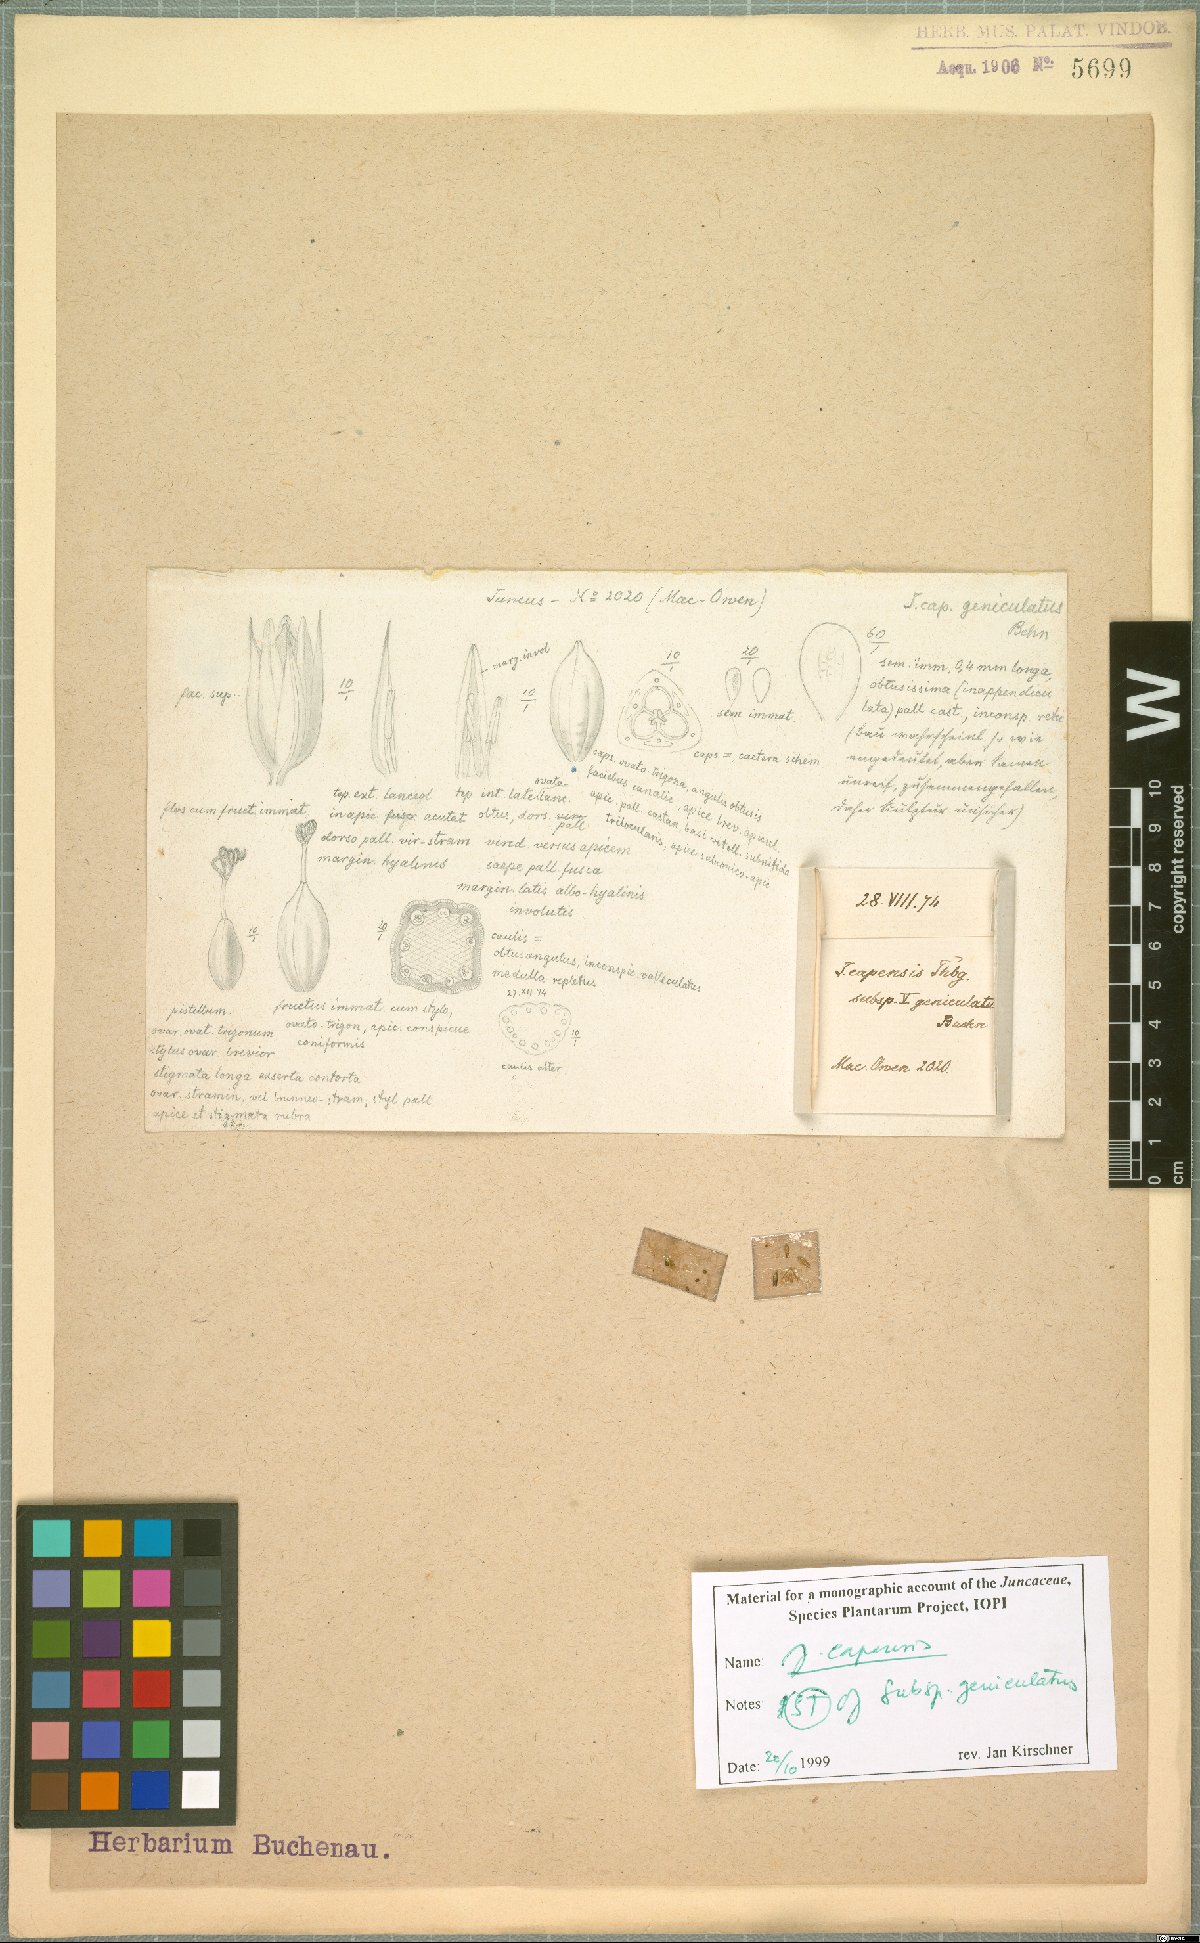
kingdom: Plantae
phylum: Tracheophyta
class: Liliopsida
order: Poales
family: Juncaceae
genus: Juncus
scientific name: Juncus capensis
